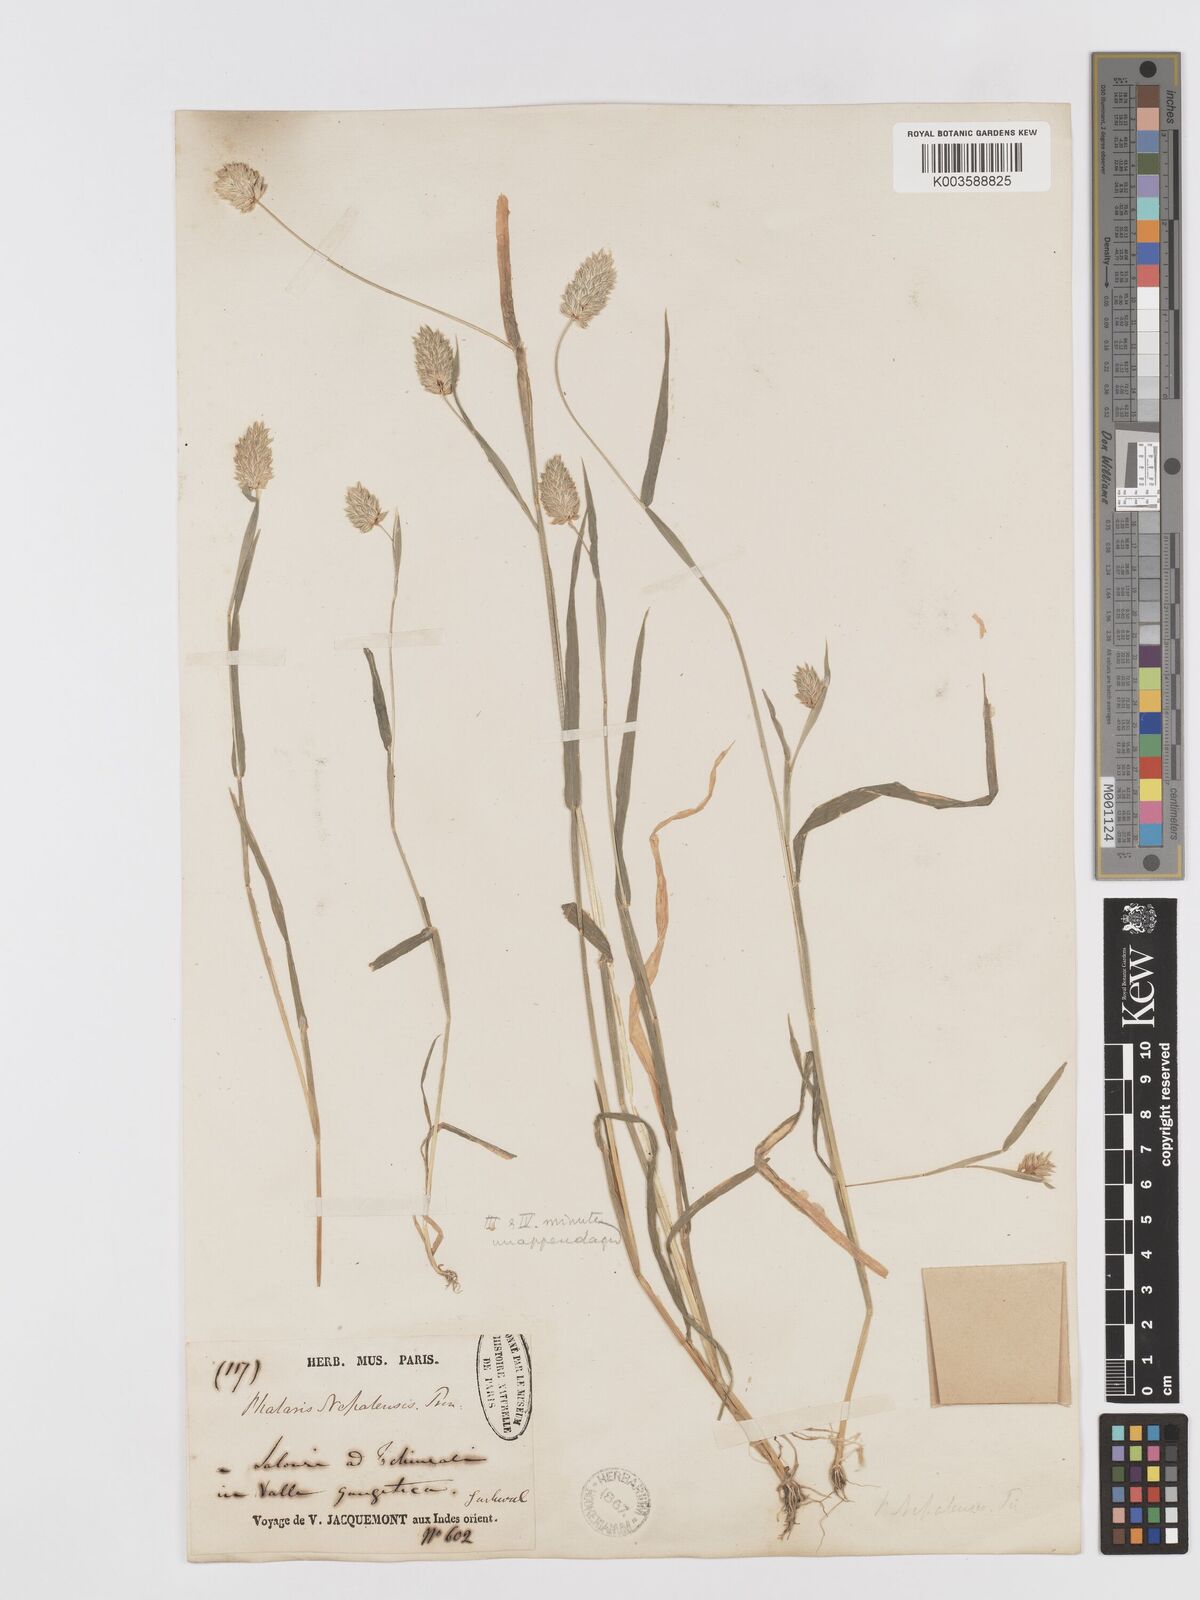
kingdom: Plantae
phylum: Tracheophyta
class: Liliopsida
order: Poales
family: Poaceae
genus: Phalaris
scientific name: Phalaris minor
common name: Littleseed canarygrass
